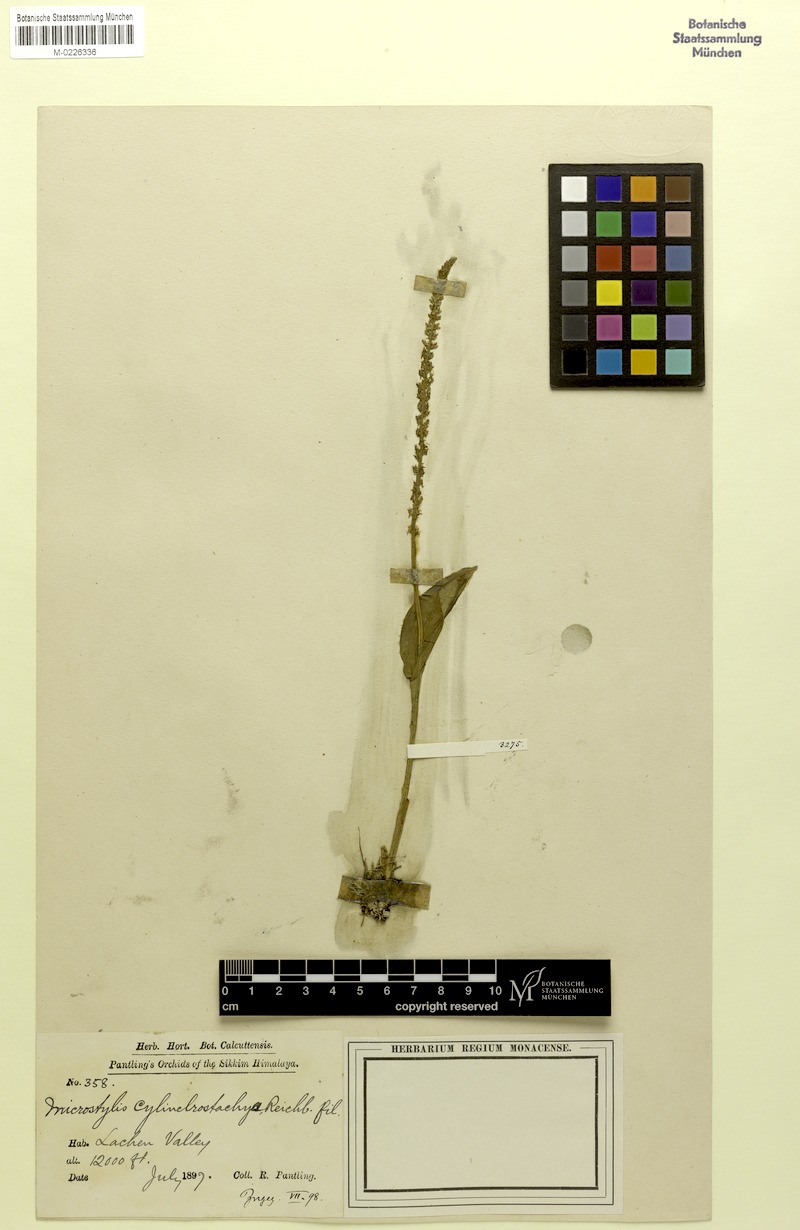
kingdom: Plantae
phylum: Tracheophyta
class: Liliopsida
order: Asparagales
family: Orchidaceae
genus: Dienia
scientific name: Dienia cylindrostachya
